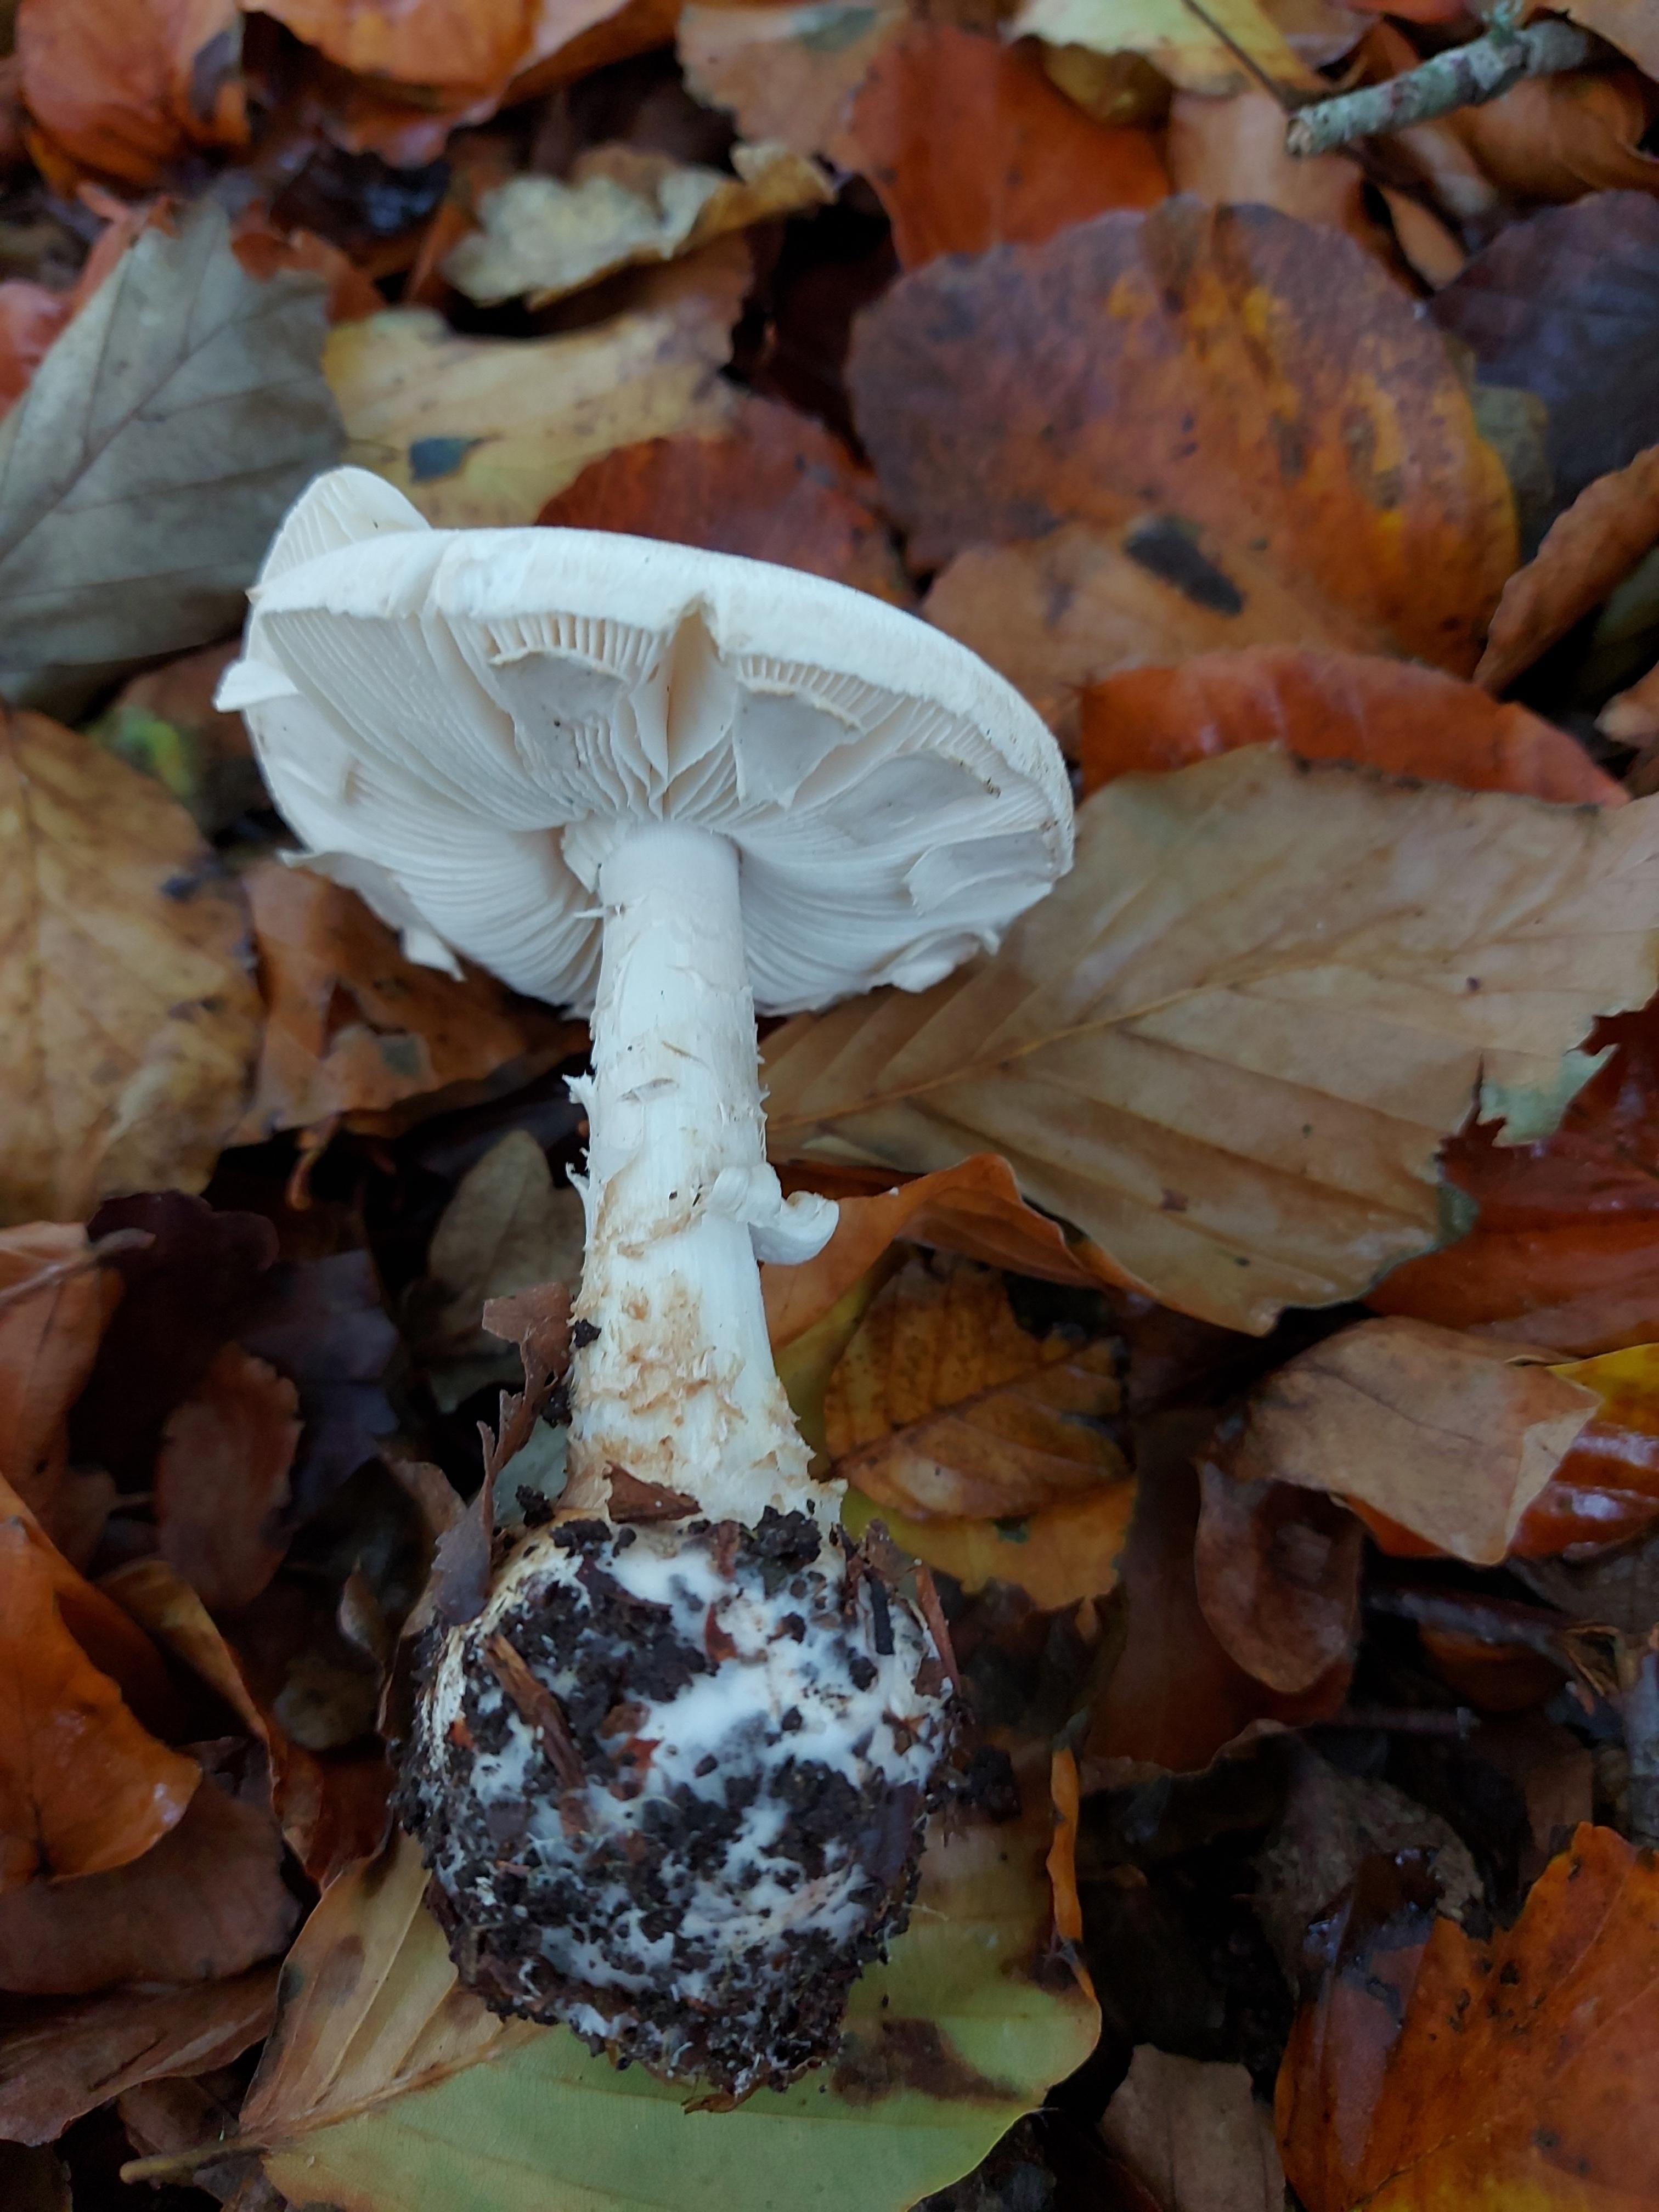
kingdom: Fungi
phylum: Basidiomycota
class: Agaricomycetes
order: Agaricales
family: Amanitaceae
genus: Amanita
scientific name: Amanita citrina
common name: False death-cap
